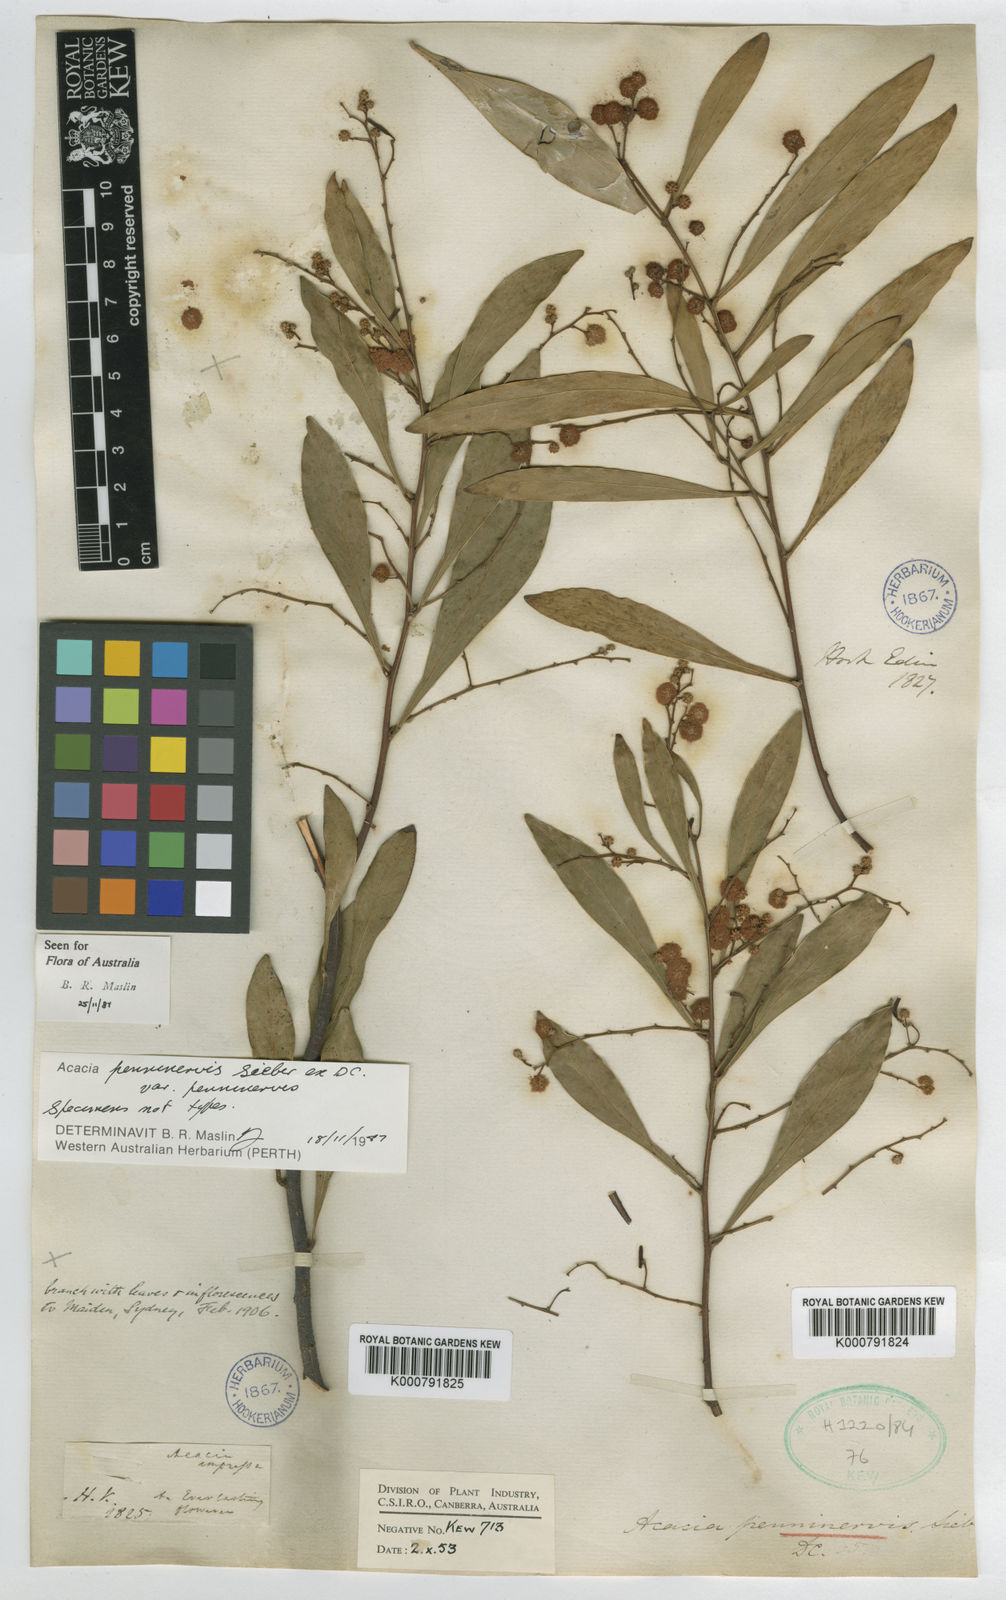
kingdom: Plantae
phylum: Tracheophyta
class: Magnoliopsida
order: Fabales
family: Fabaceae
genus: Acacia
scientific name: Acacia penninervis
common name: Hickory wattle
